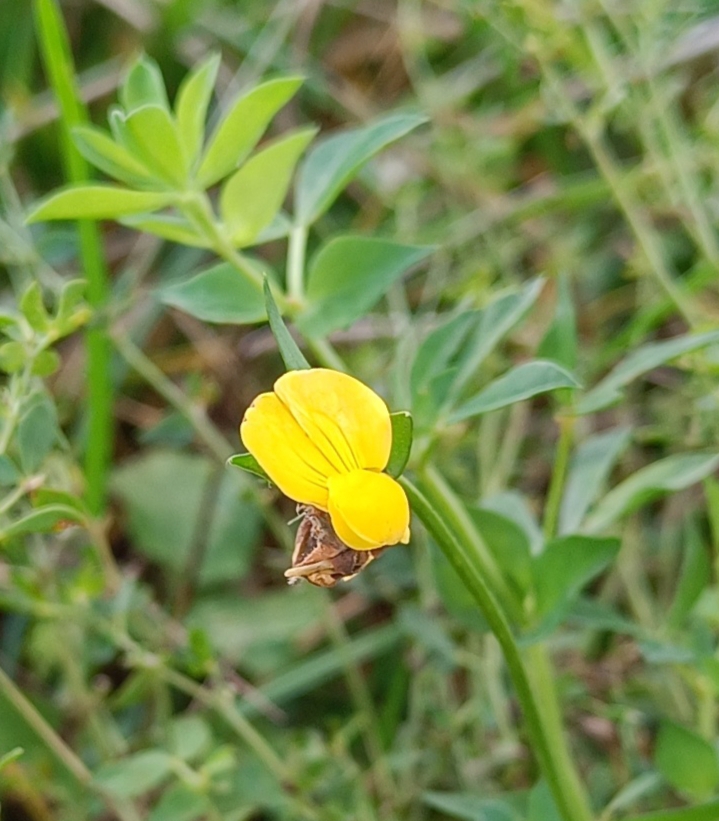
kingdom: Plantae
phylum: Tracheophyta
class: Magnoliopsida
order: Fabales
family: Fabaceae
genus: Lotus
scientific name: Lotus corniculatus
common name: Almindelig kællingetand
